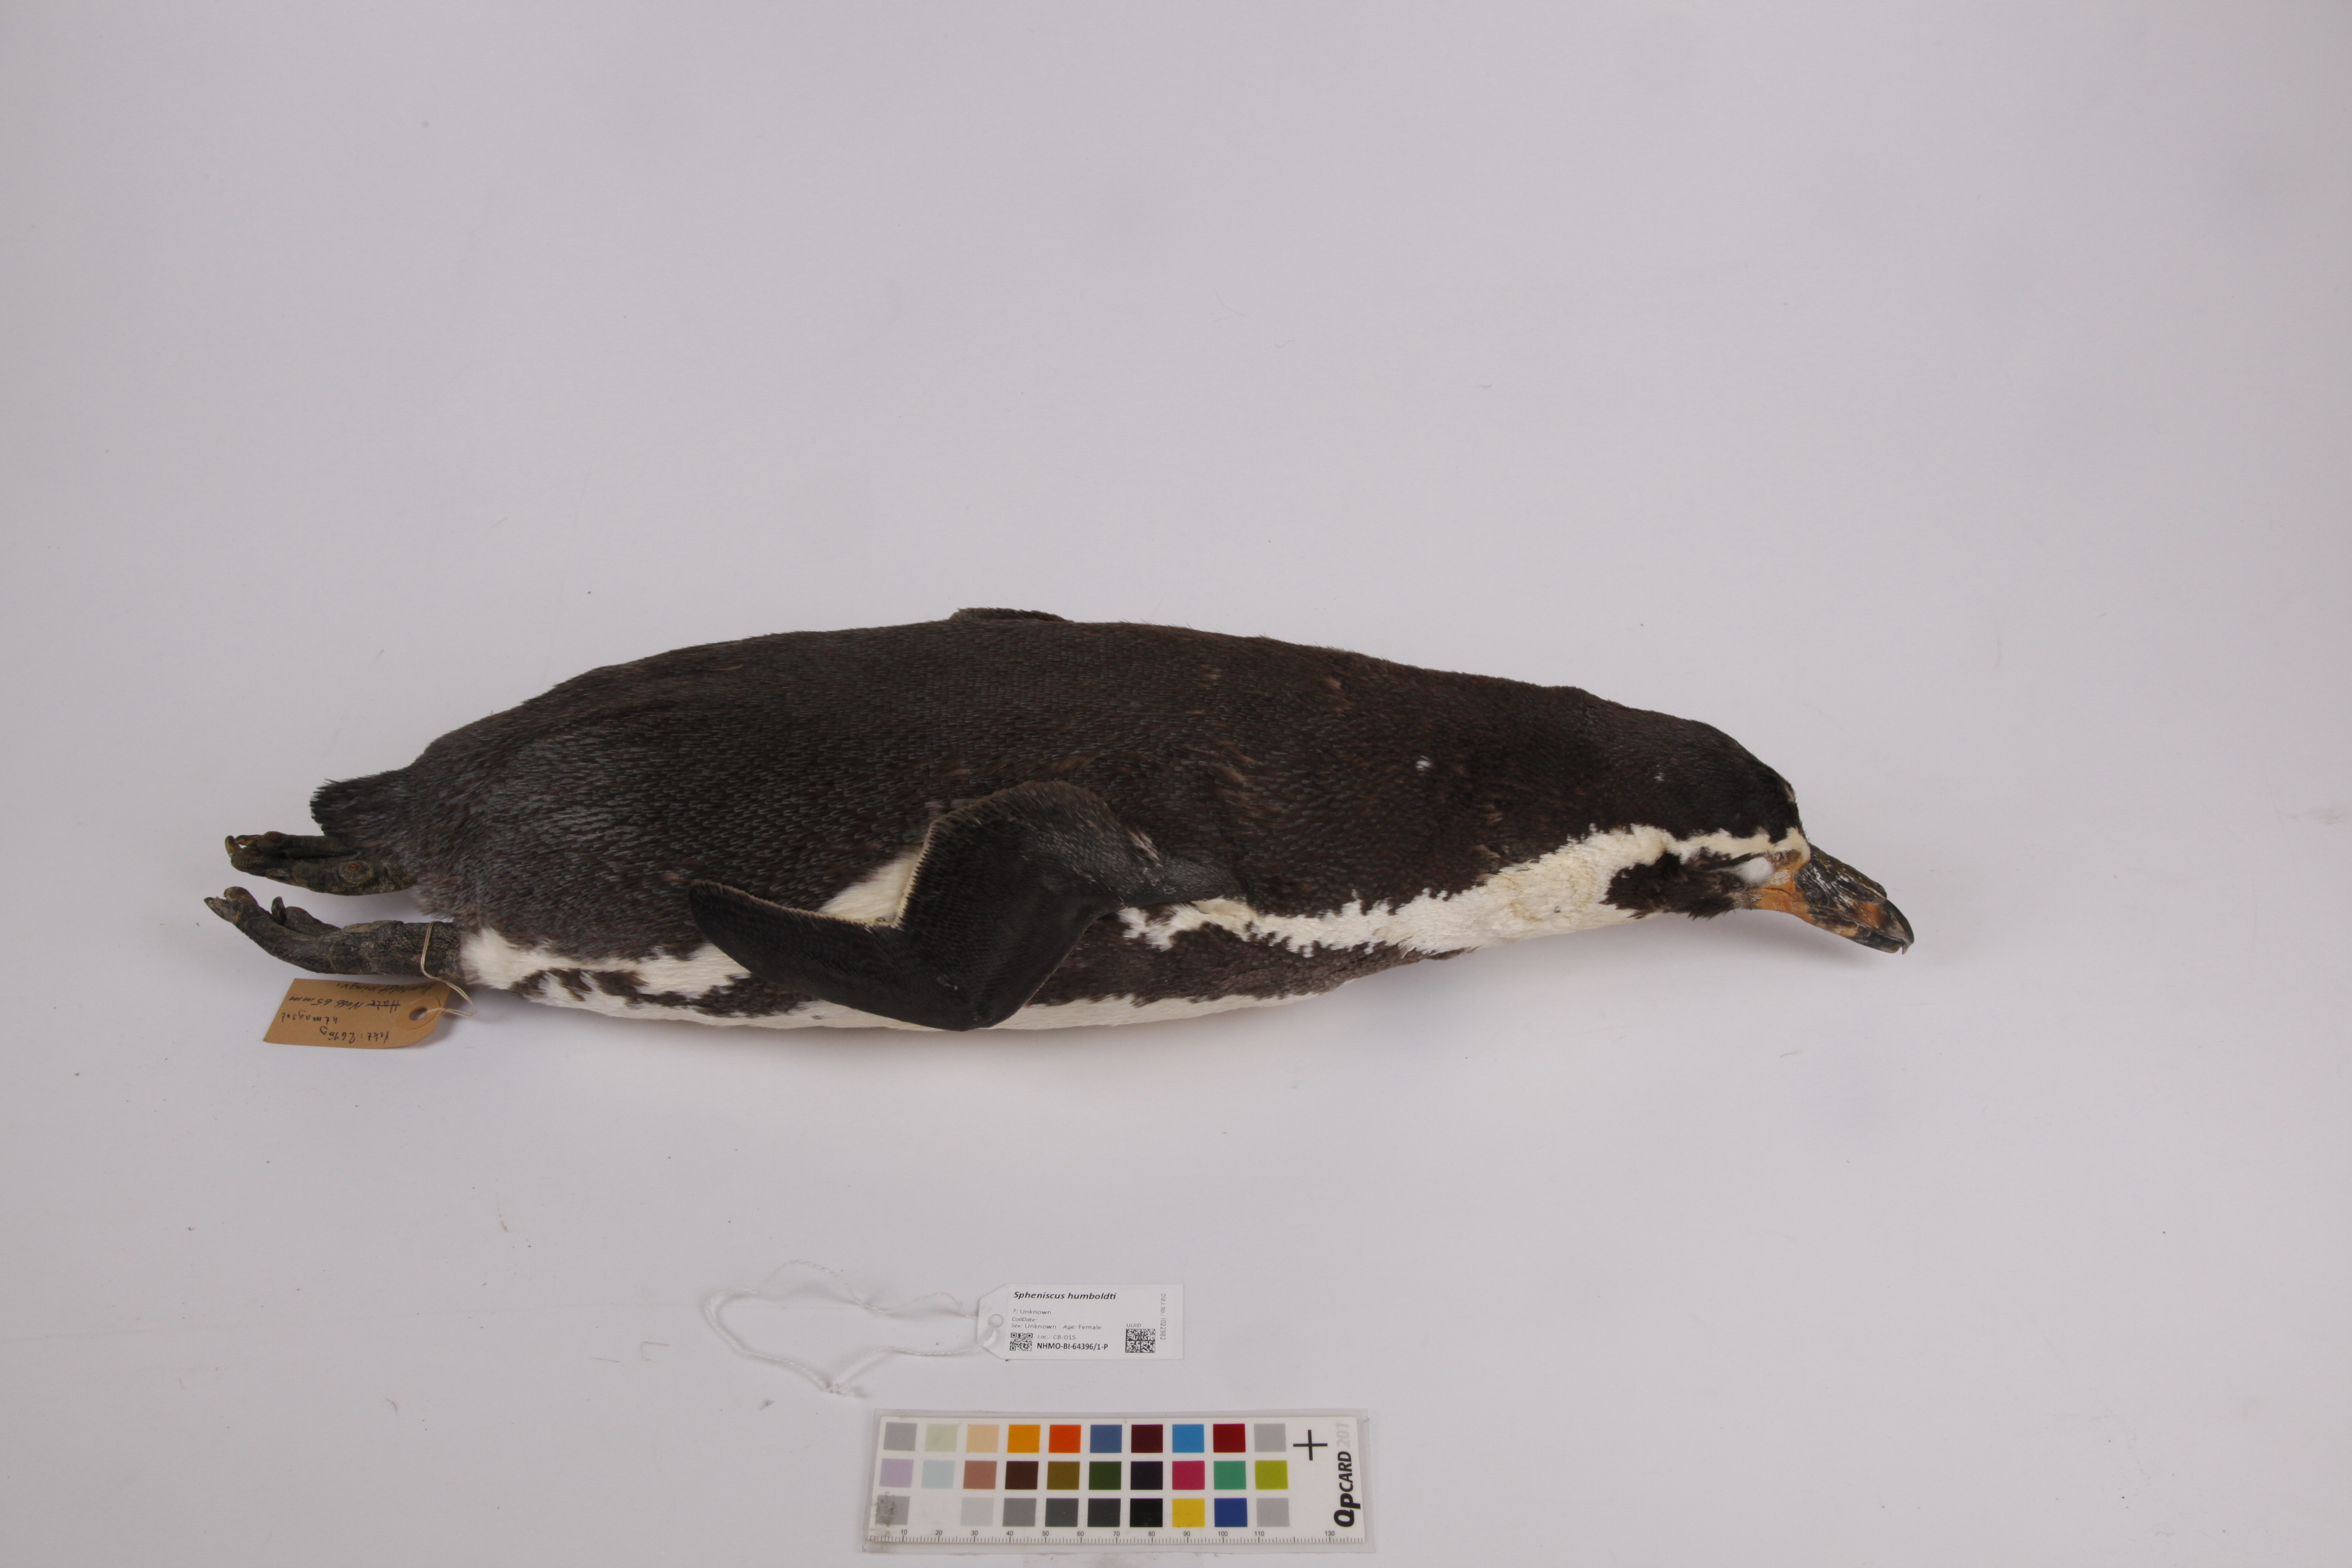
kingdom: Animalia
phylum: Chordata
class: Aves
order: Sphenisciformes
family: Spheniscidae
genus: Spheniscus
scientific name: Spheniscus humboldti
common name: Humboldt penguin
